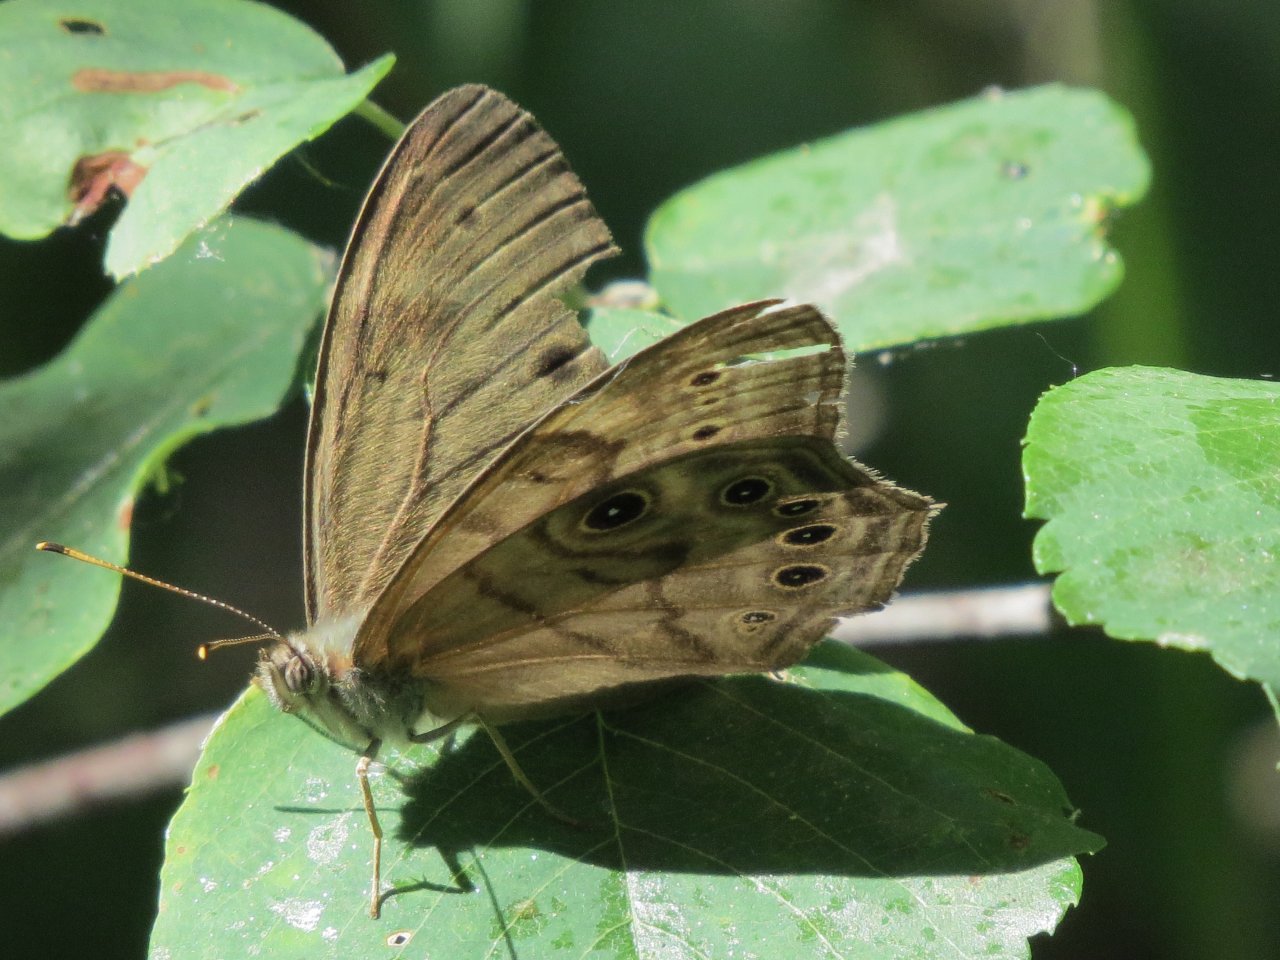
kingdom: Animalia
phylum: Arthropoda
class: Insecta
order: Lepidoptera
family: Nymphalidae
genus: Lethe
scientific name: Lethe anthedon
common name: Northern Pearly-Eye
